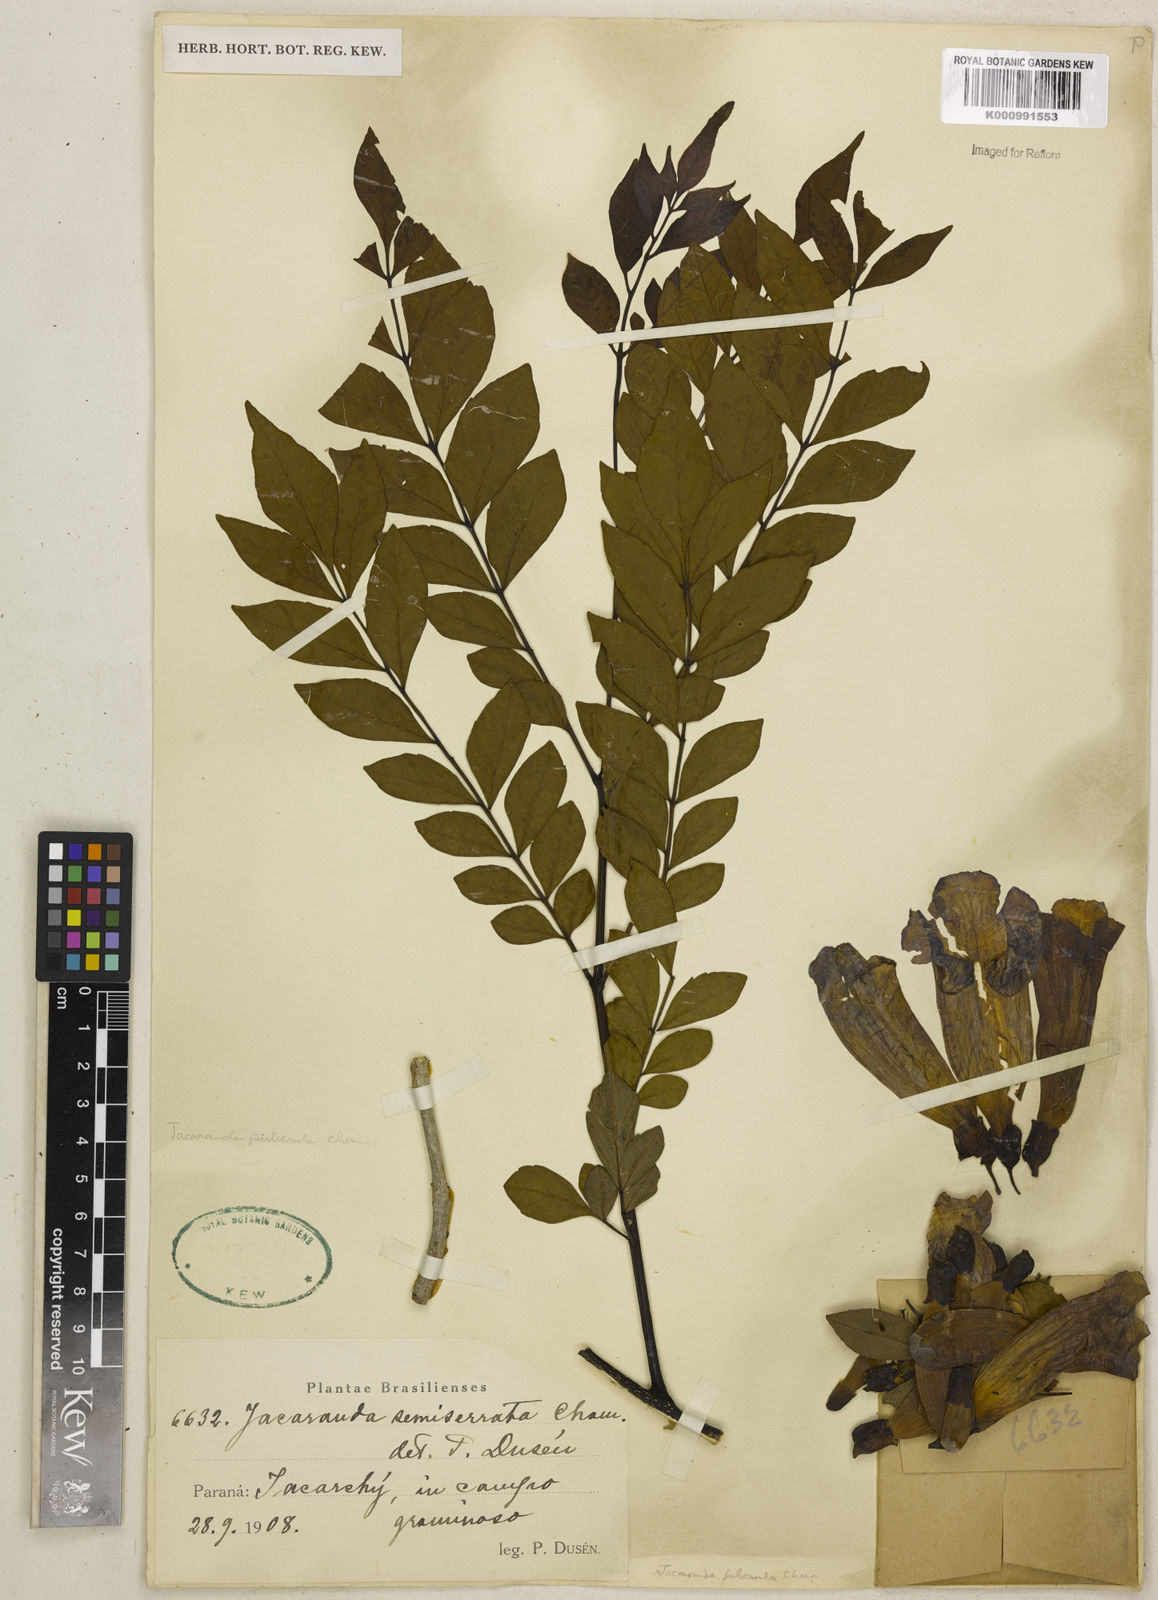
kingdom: Plantae
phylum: Tracheophyta
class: Magnoliopsida
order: Lamiales
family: Bignoniaceae
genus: Jacaranda
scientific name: Jacaranda puberula
